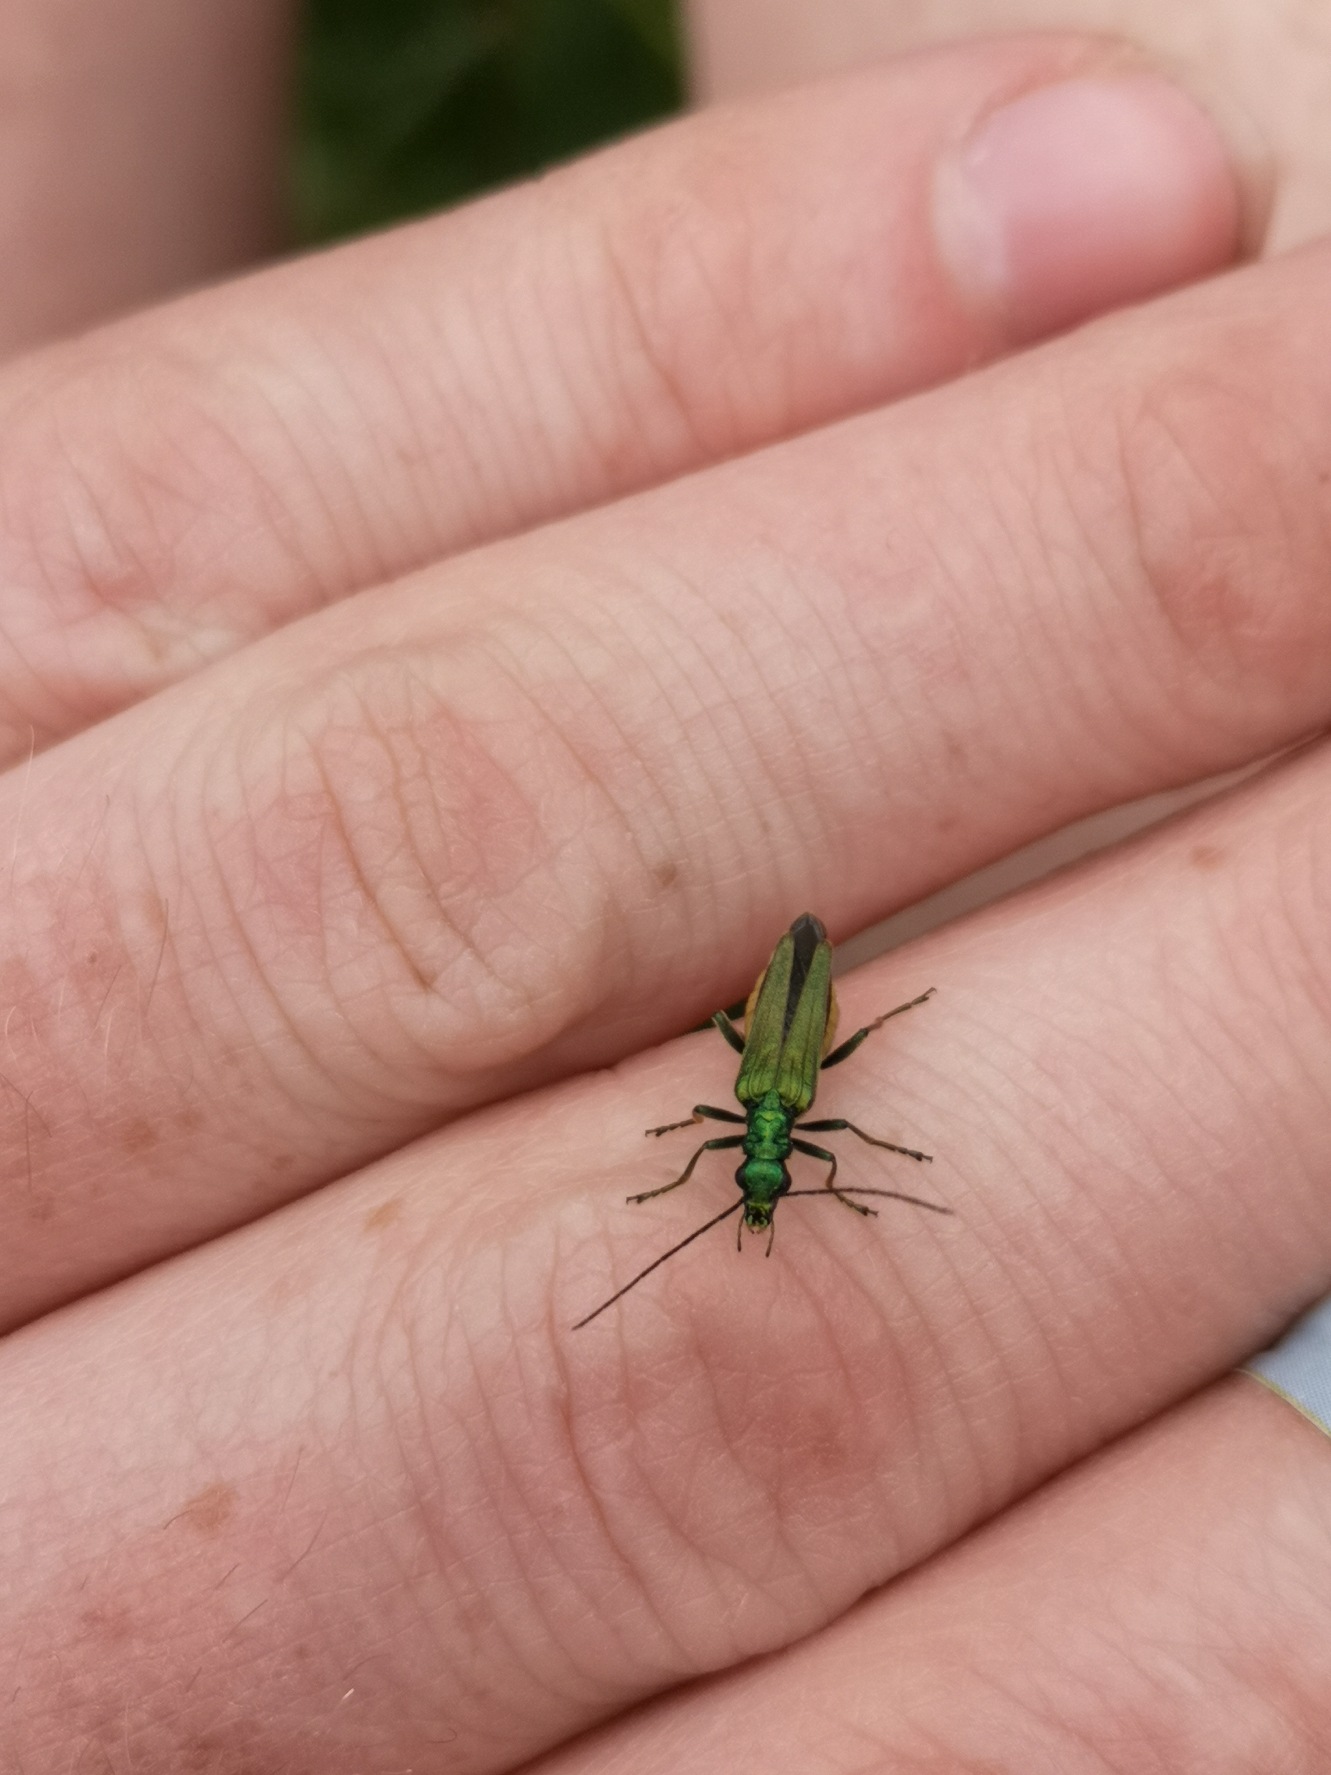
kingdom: Animalia
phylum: Arthropoda
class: Insecta
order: Coleoptera
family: Oedemeridae
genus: Oedemera
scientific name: Oedemera nobilis
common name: Tyklårssolbille
